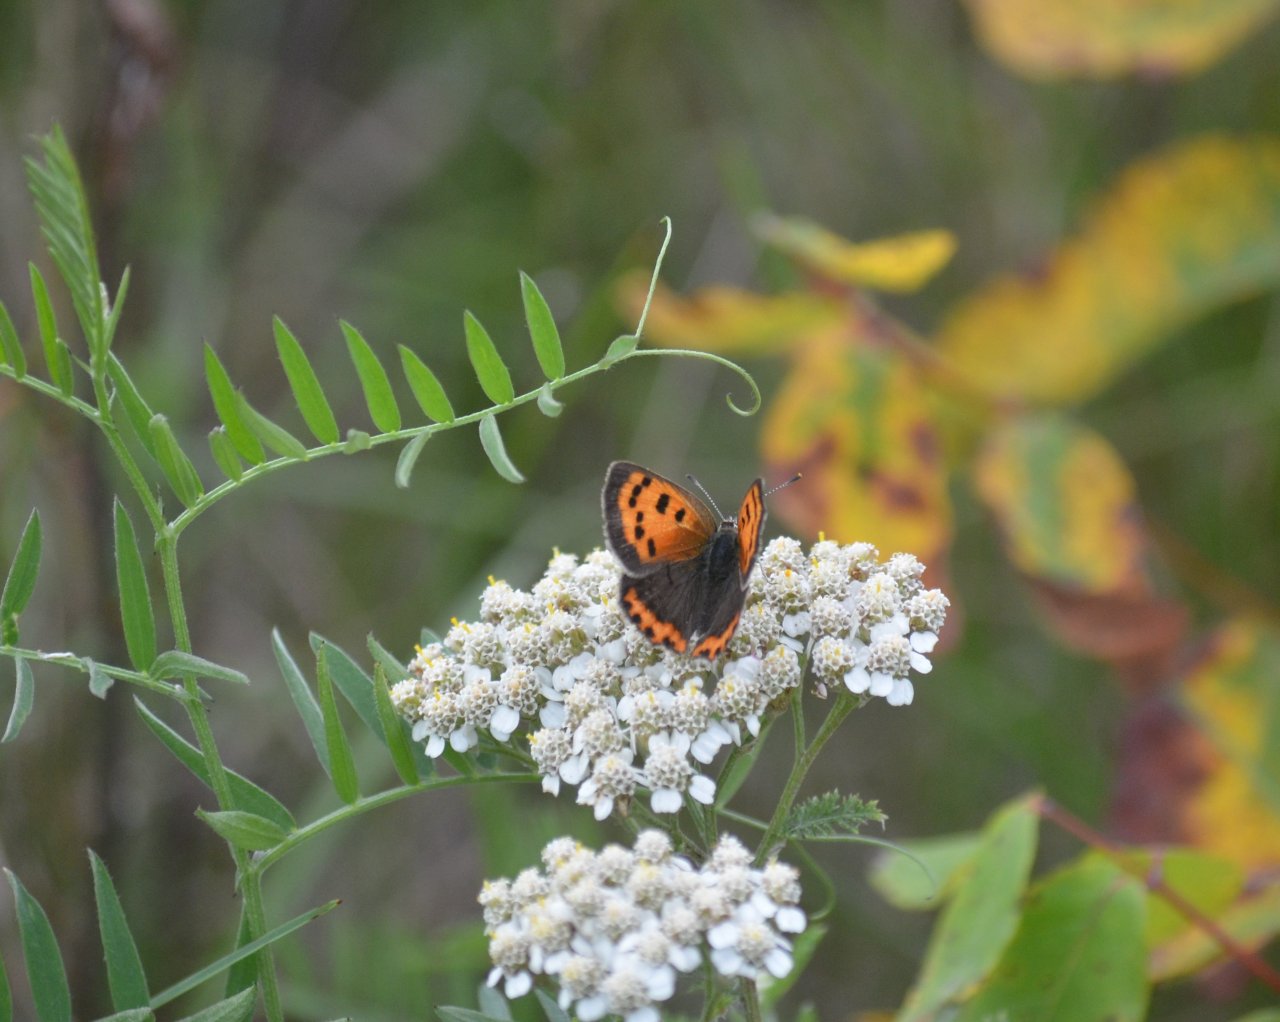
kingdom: Animalia
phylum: Arthropoda
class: Insecta
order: Lepidoptera
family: Lycaenidae
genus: Lycaena
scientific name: Lycaena phlaeas
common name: American Copper
